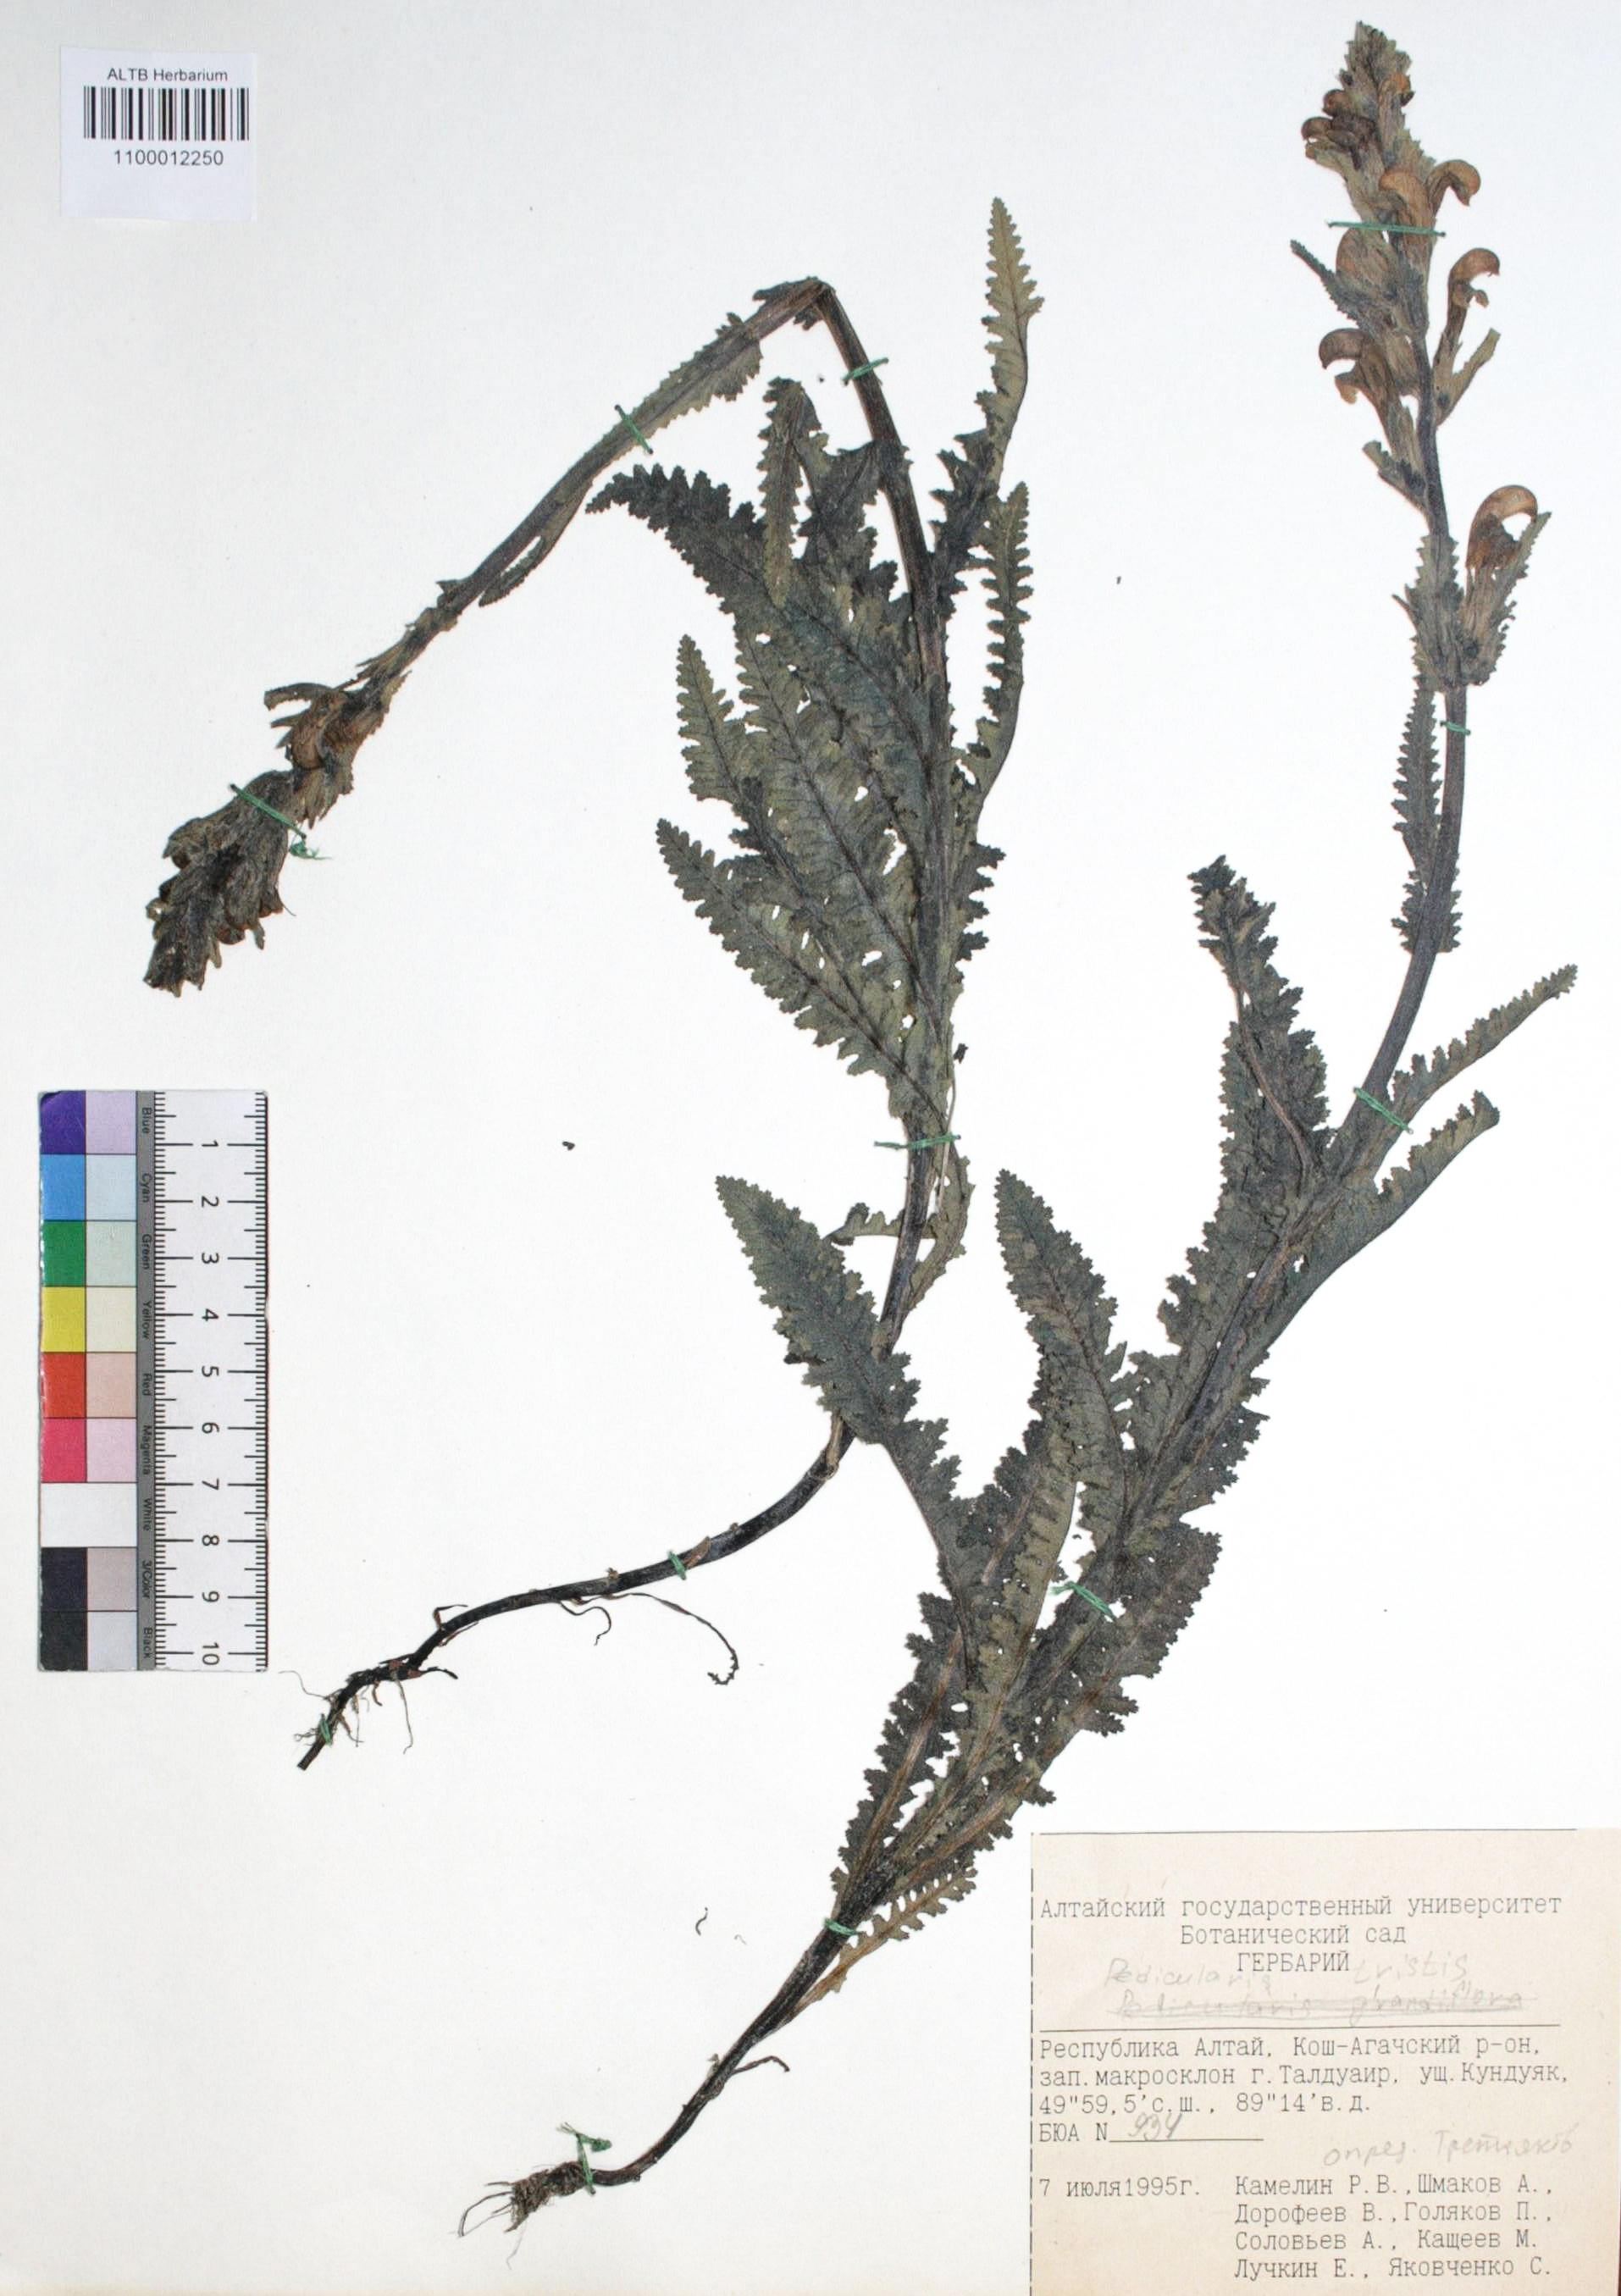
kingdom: Plantae
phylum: Tracheophyta
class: Magnoliopsida
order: Lamiales
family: Orobanchaceae
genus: Pedicularis
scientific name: Pedicularis tristis
